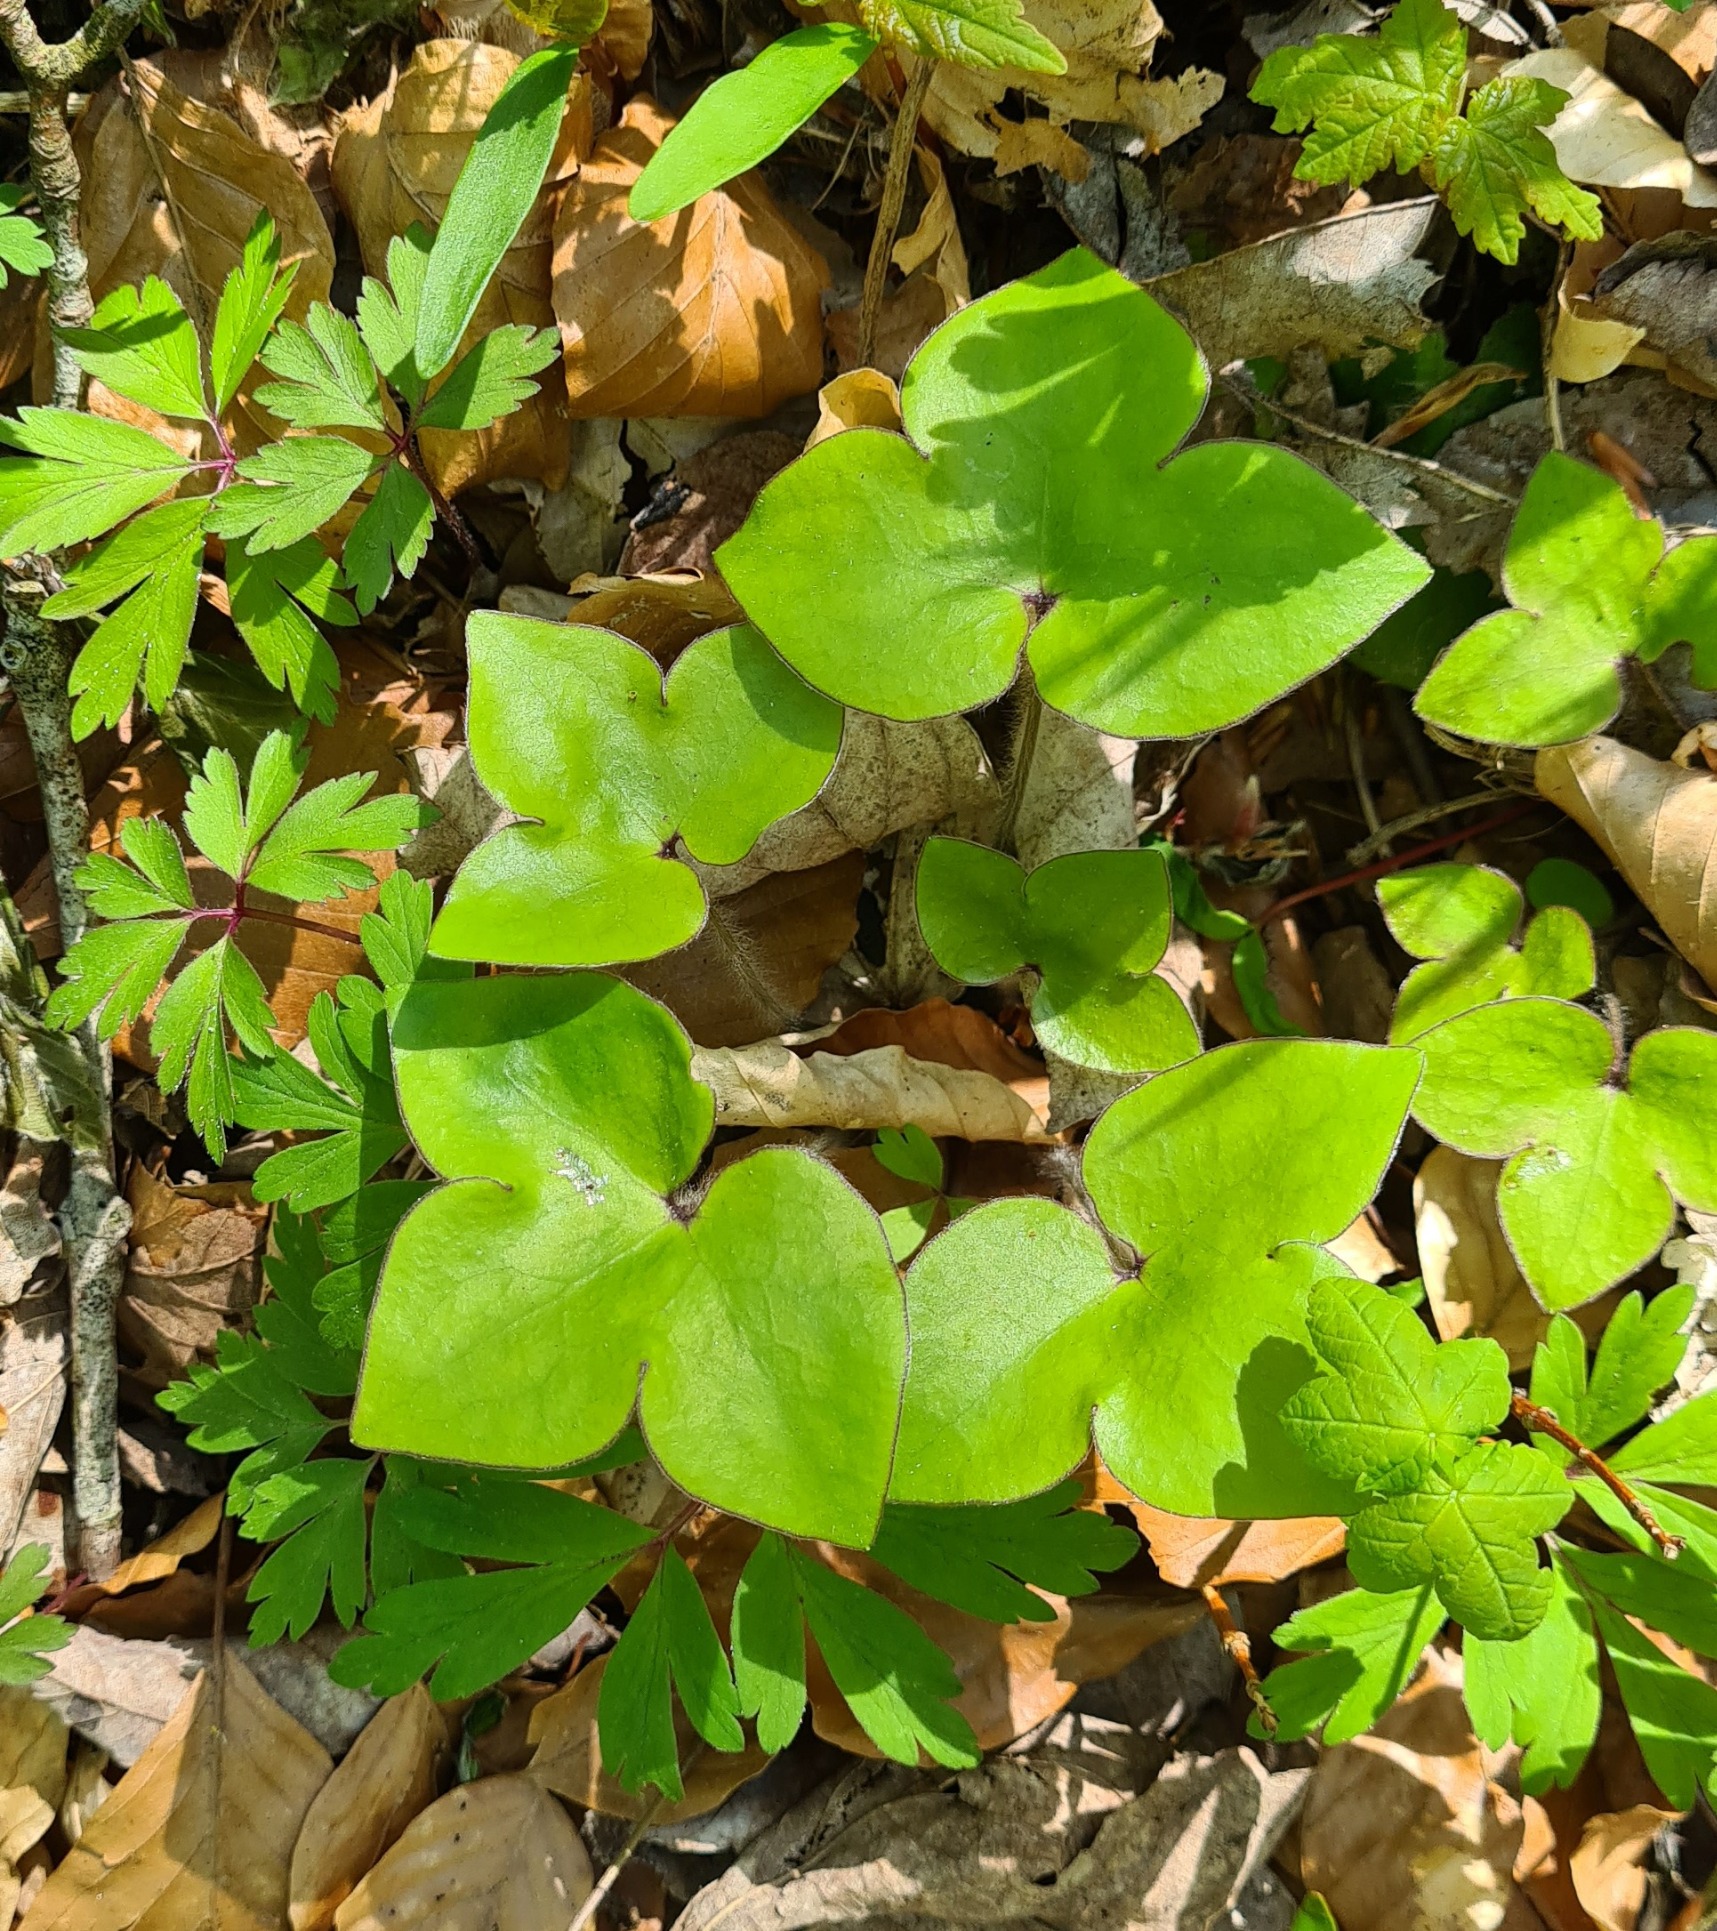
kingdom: Plantae
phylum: Tracheophyta
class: Magnoliopsida
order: Ranunculales
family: Ranunculaceae
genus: Hepatica
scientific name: Hepatica nobilis
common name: Blå anemone
